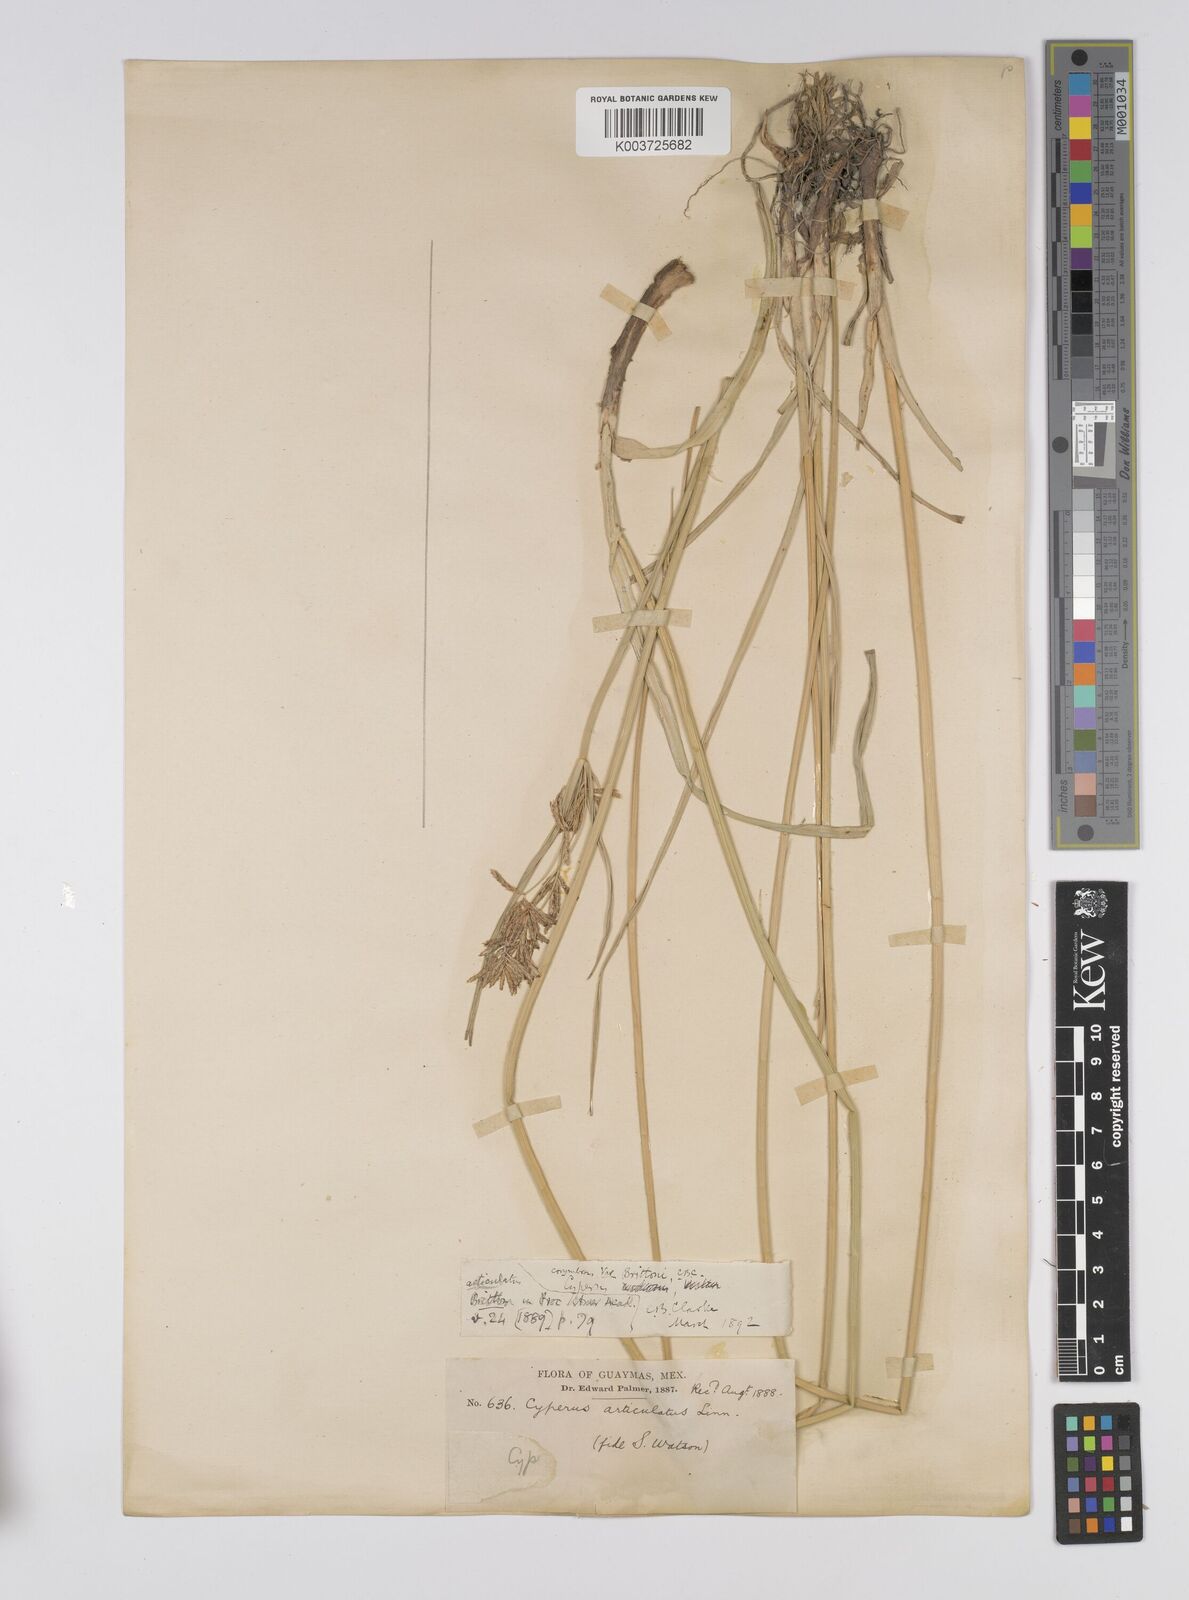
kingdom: Plantae
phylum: Tracheophyta
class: Liliopsida
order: Poales
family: Cyperaceae
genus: Cyperus
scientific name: Cyperus articulatus
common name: Jointed flatsedge
